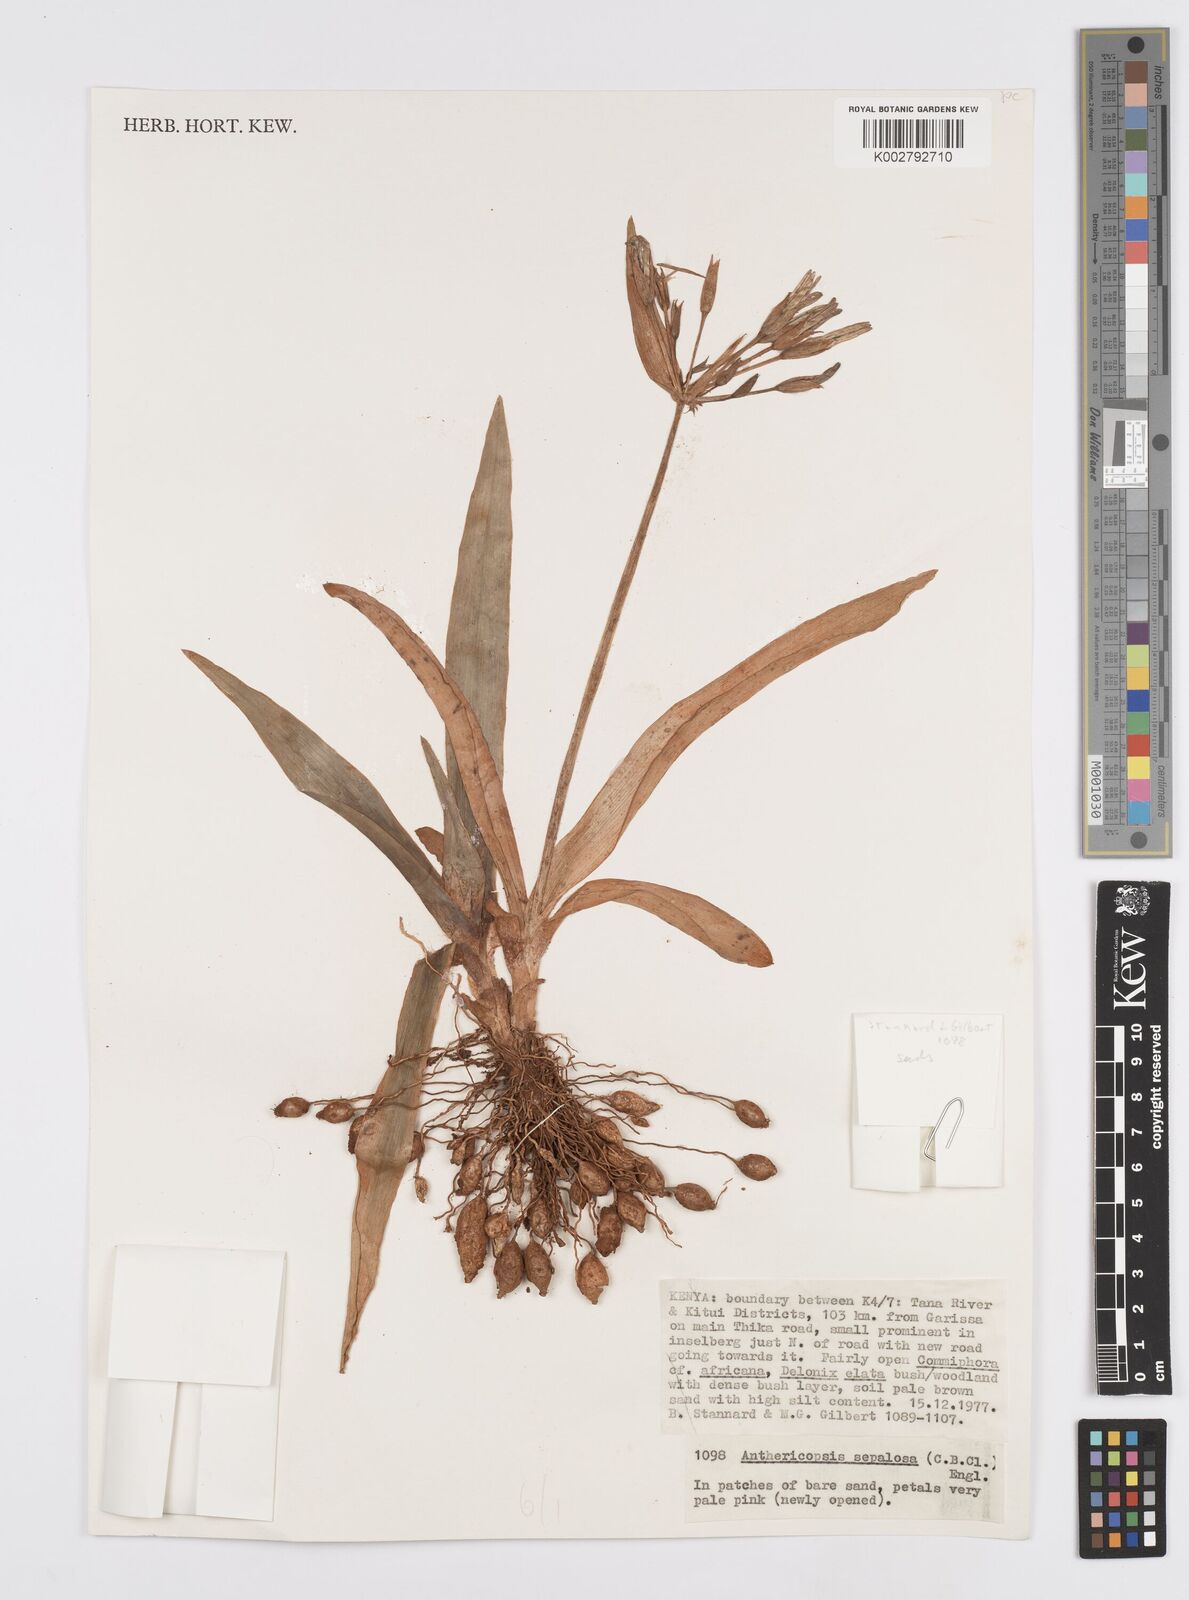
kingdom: Plantae
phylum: Tracheophyta
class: Liliopsida
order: Commelinales
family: Commelinaceae
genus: Anthericopsis
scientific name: Anthericopsis sepalosa
